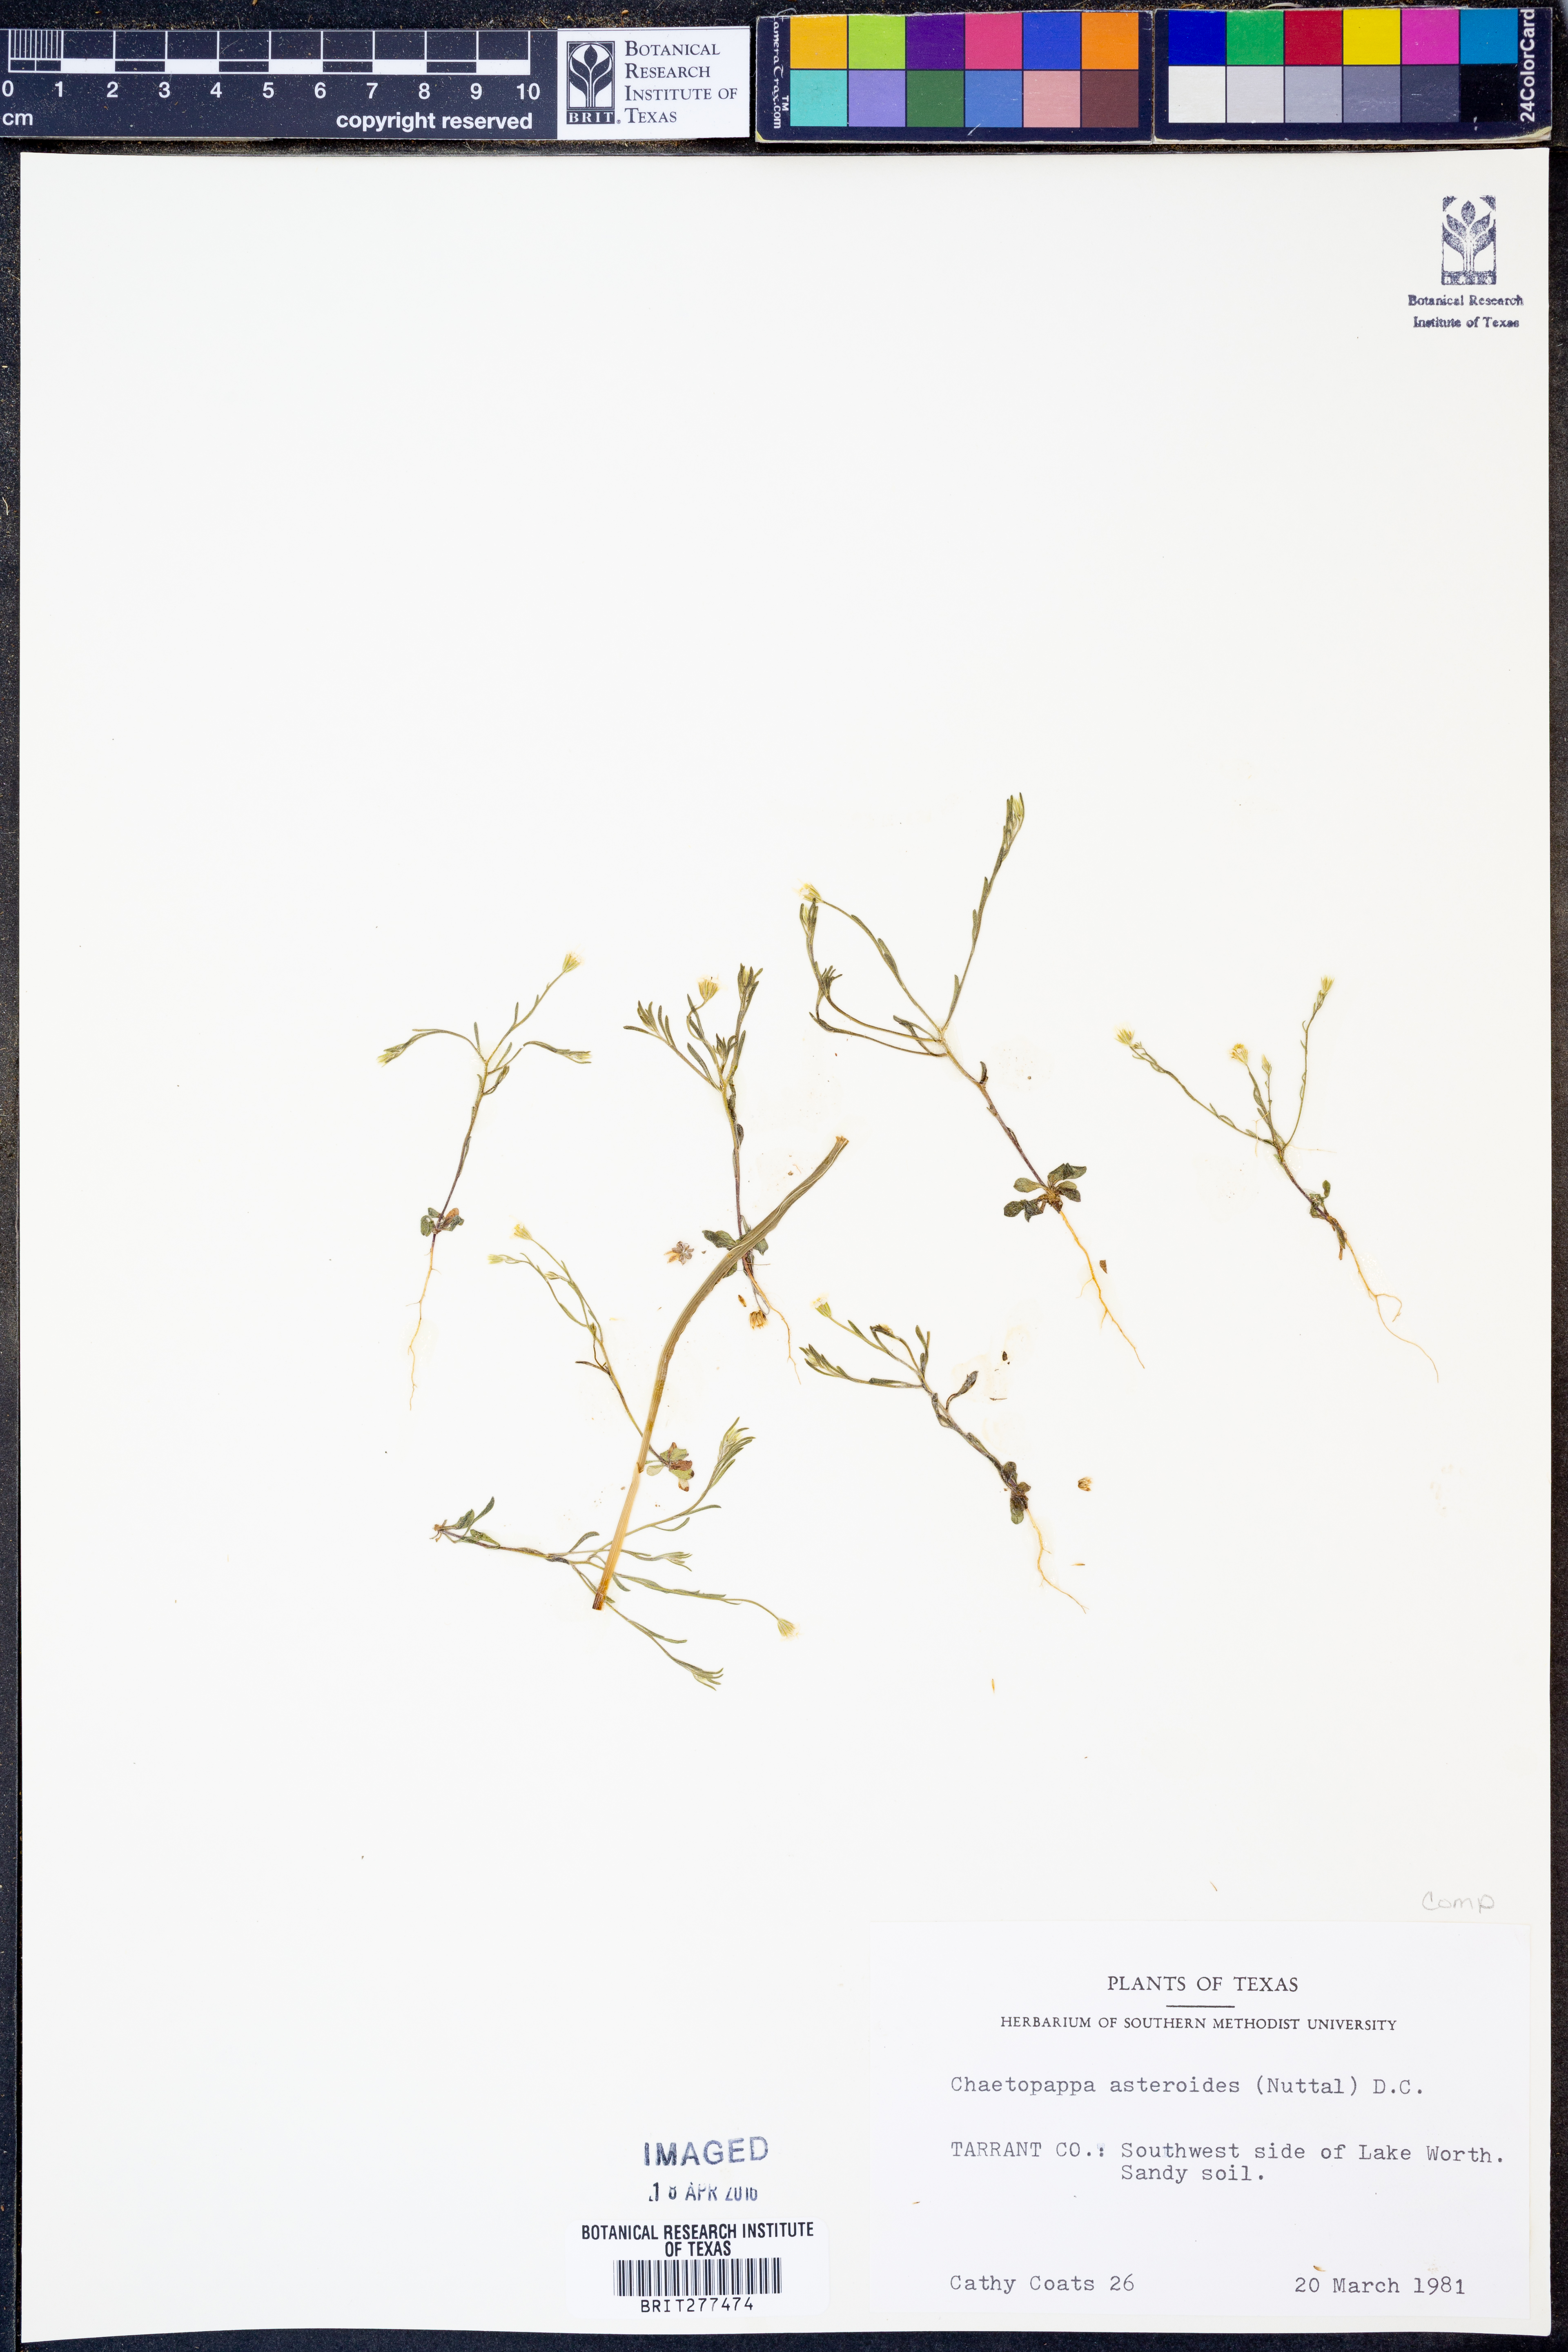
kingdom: Plantae
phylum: Tracheophyta
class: Magnoliopsida
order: Asterales
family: Asteraceae
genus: Chaetopappa
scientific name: Chaetopappa asteroides
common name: Tiny lazy daisy
